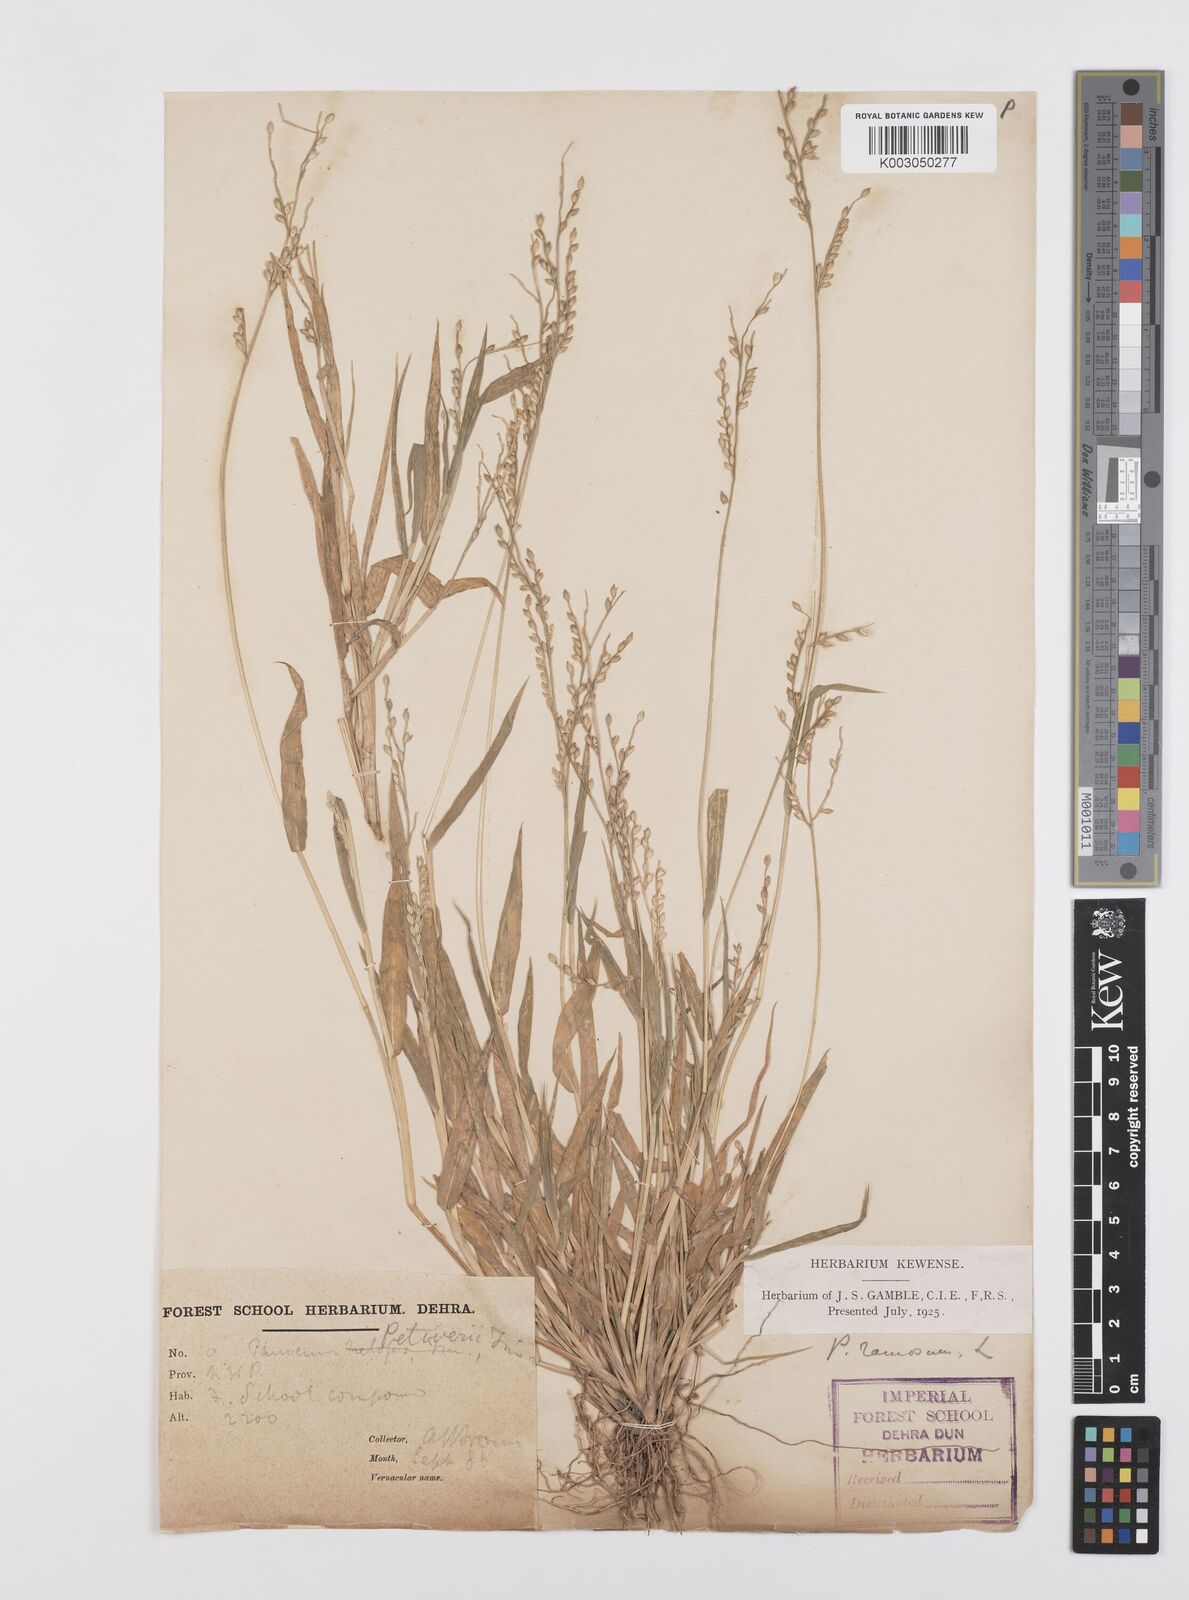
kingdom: Plantae
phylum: Tracheophyta
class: Liliopsida
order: Poales
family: Poaceae
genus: Urochloa
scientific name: Urochloa ramosa
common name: Browntop millet
